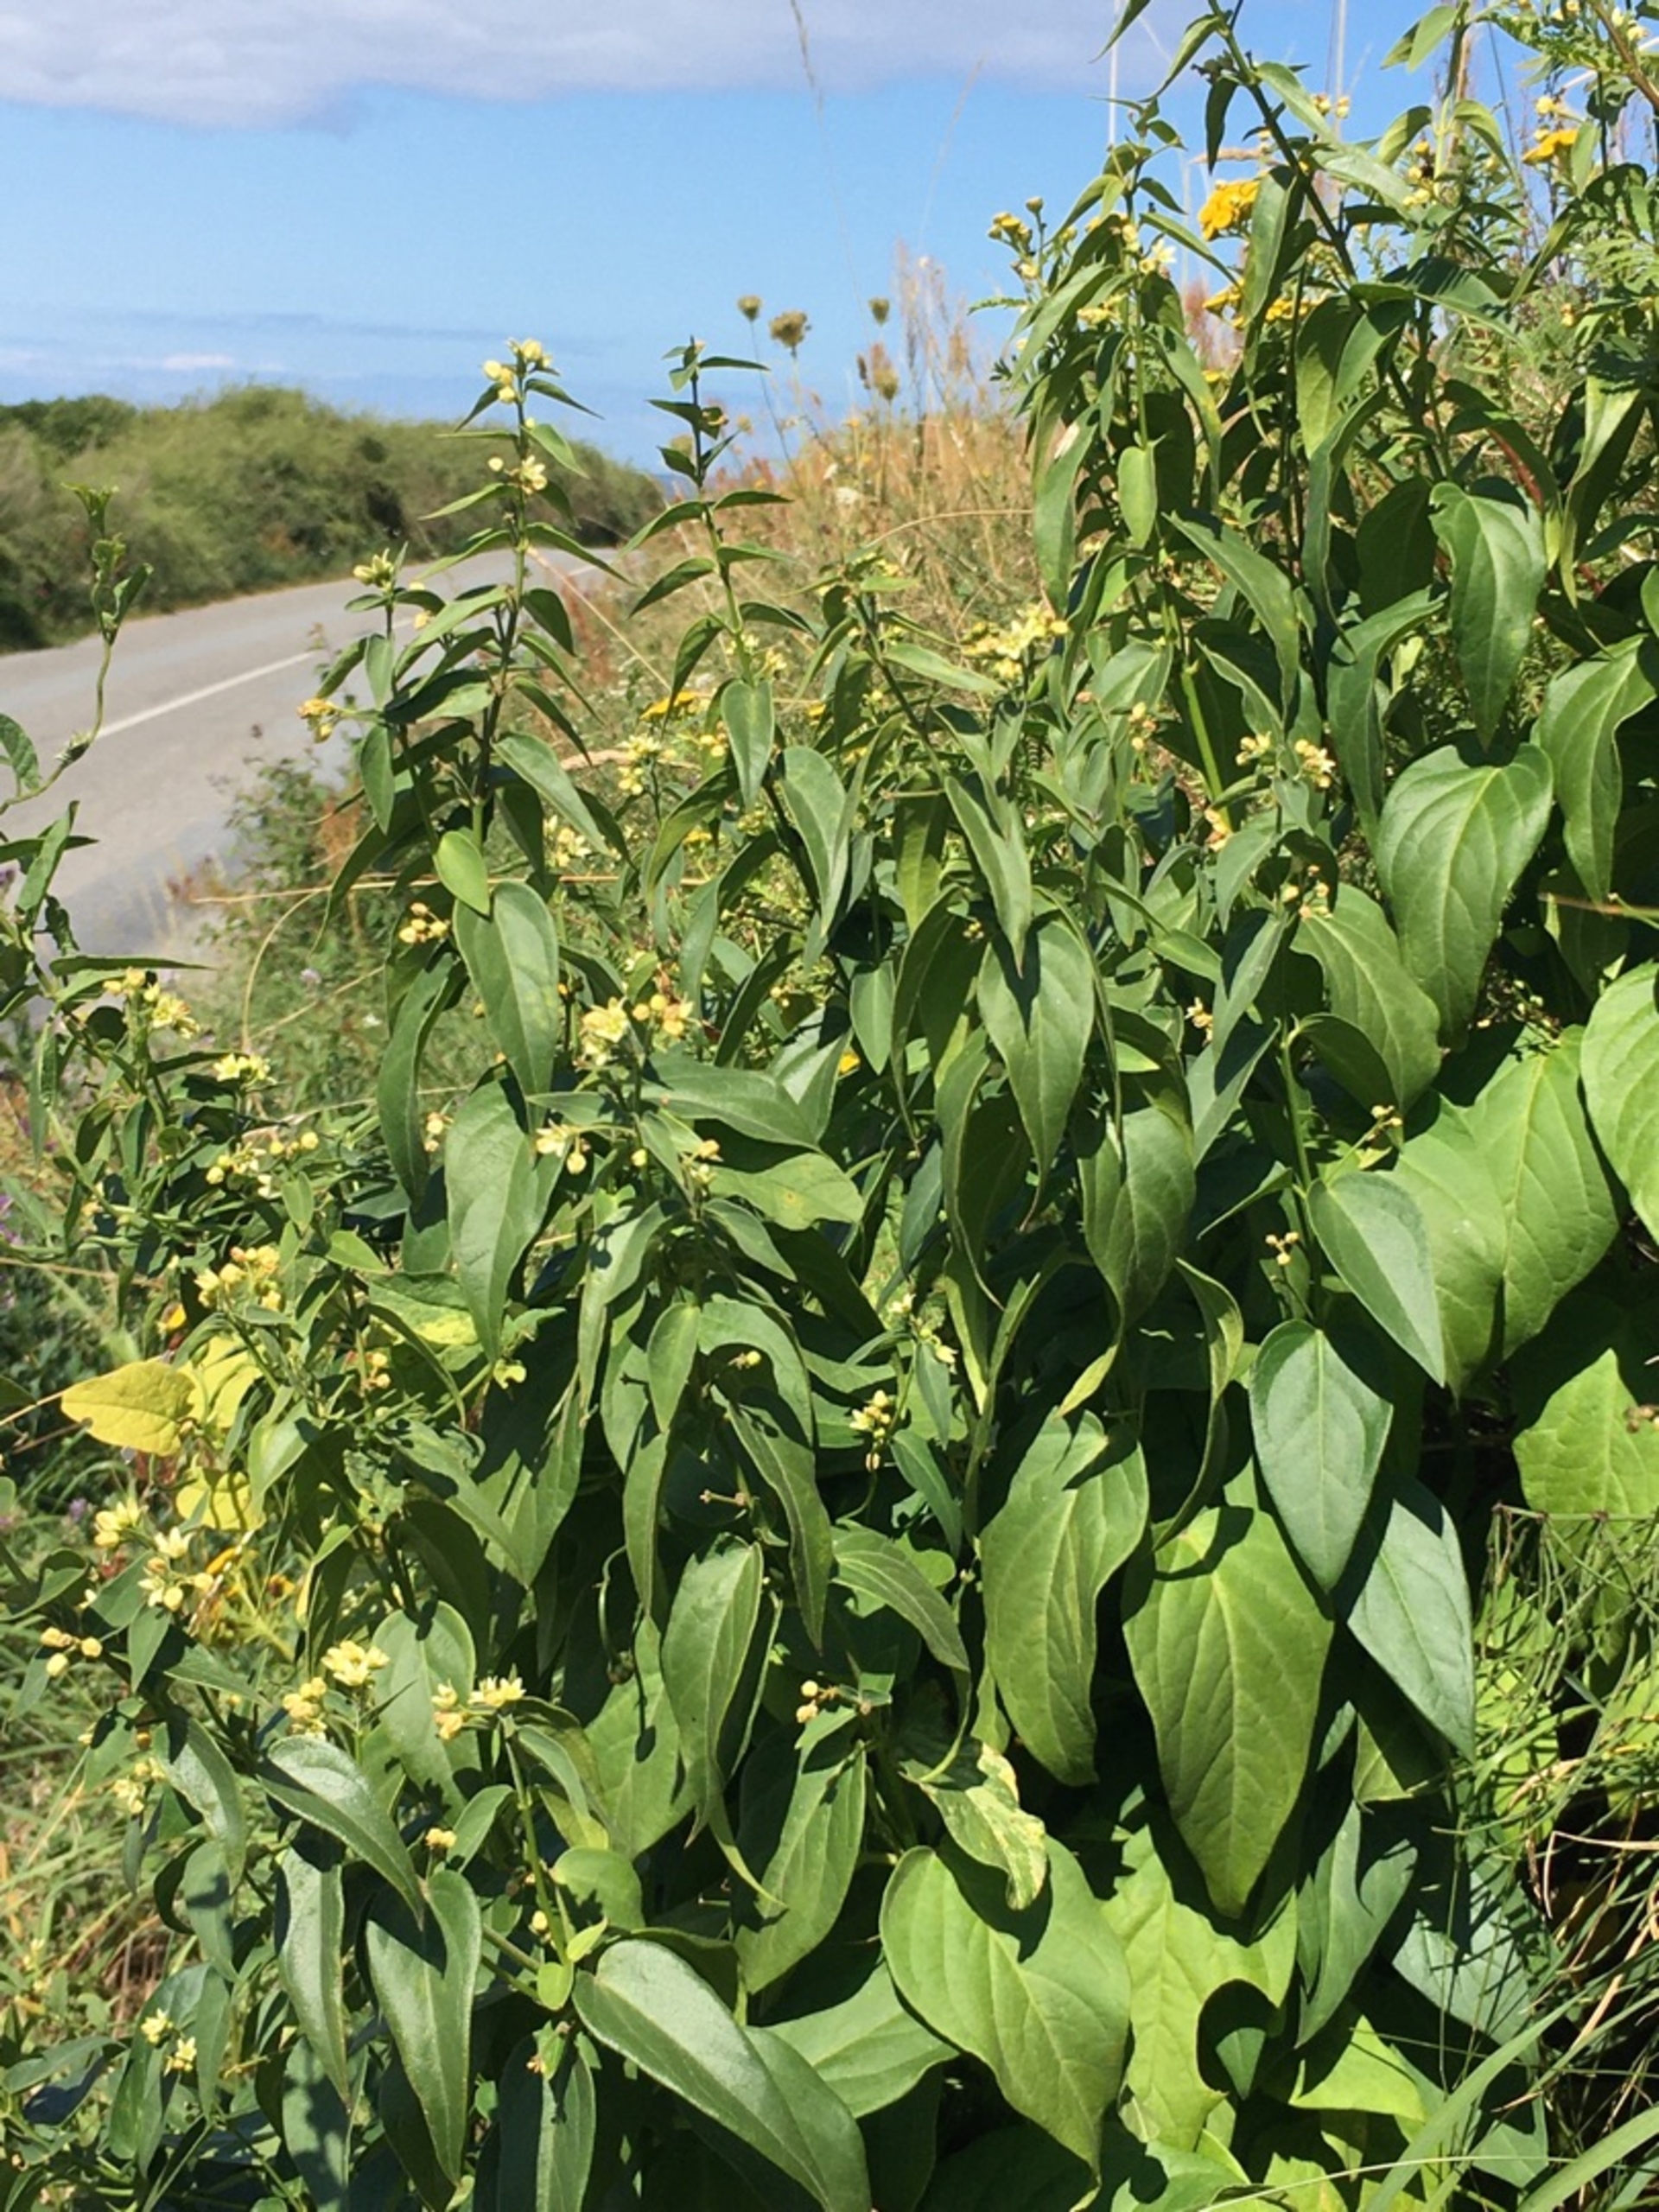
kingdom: Plantae
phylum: Tracheophyta
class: Magnoliopsida
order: Gentianales
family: Apocynaceae
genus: Vincetoxicum
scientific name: Vincetoxicum hirundinaria
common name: Svalerod
